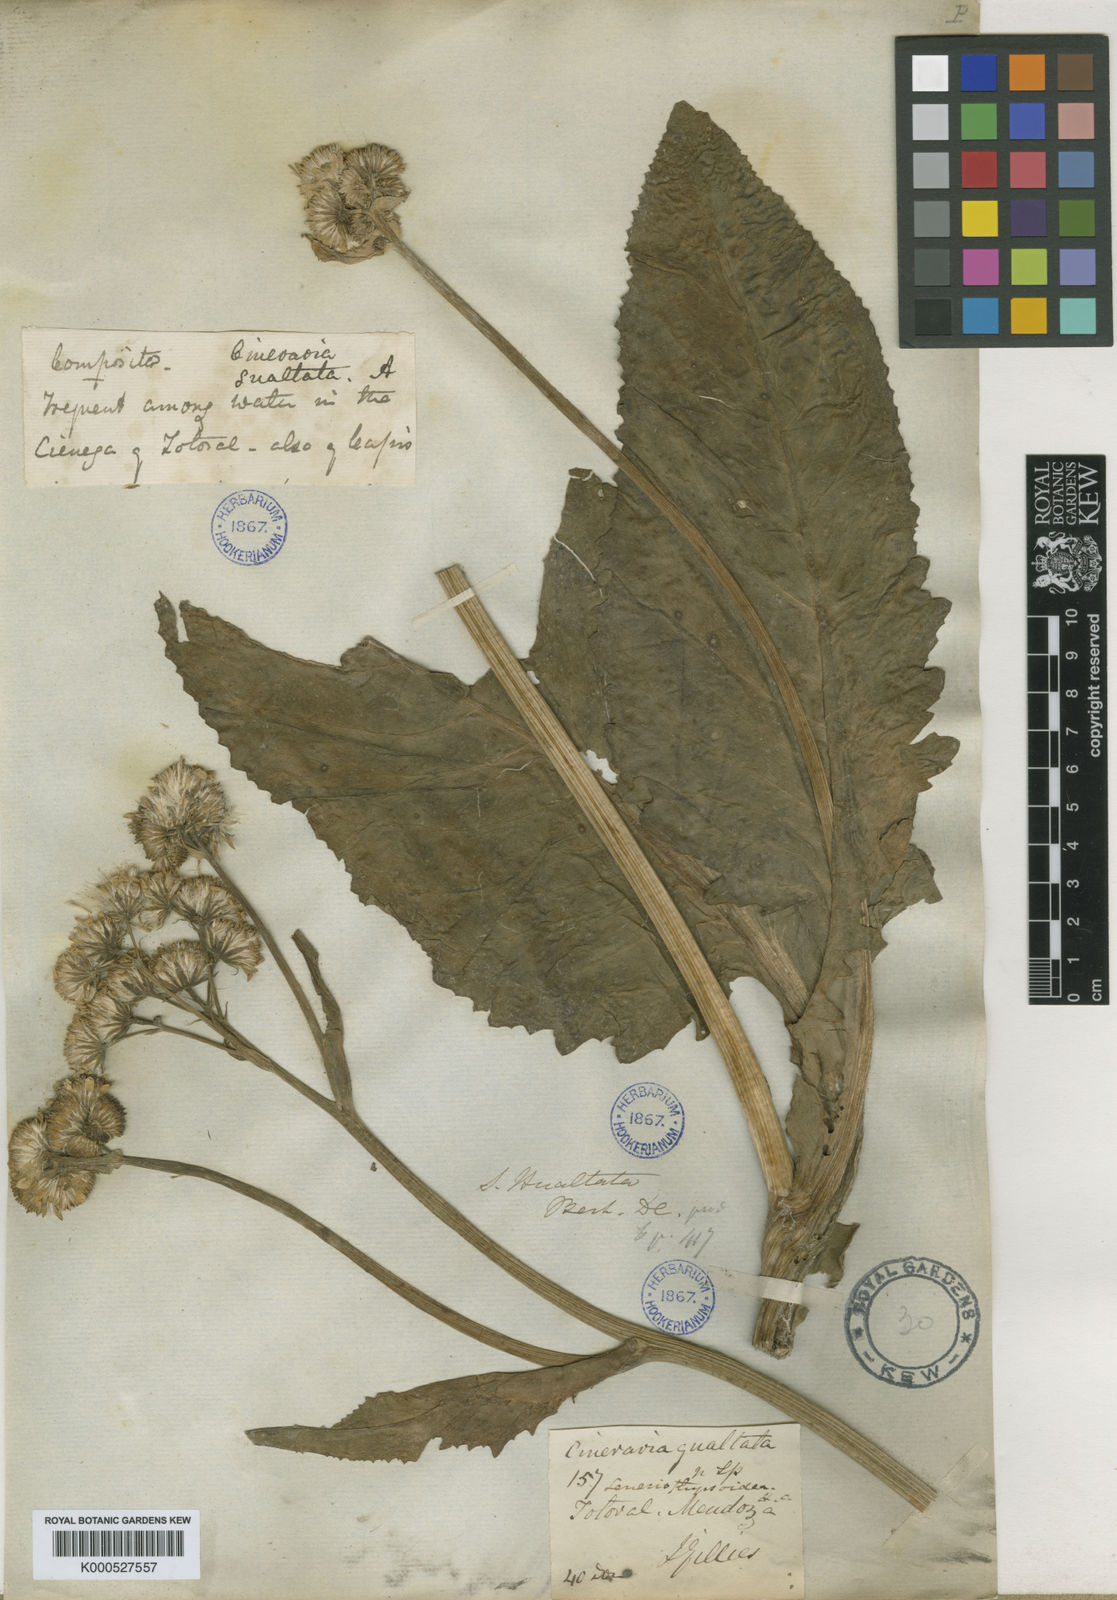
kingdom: Plantae
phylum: Tracheophyta
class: Magnoliopsida
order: Asterales
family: Asteraceae
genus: Senecio
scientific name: Senecio fistulosus
